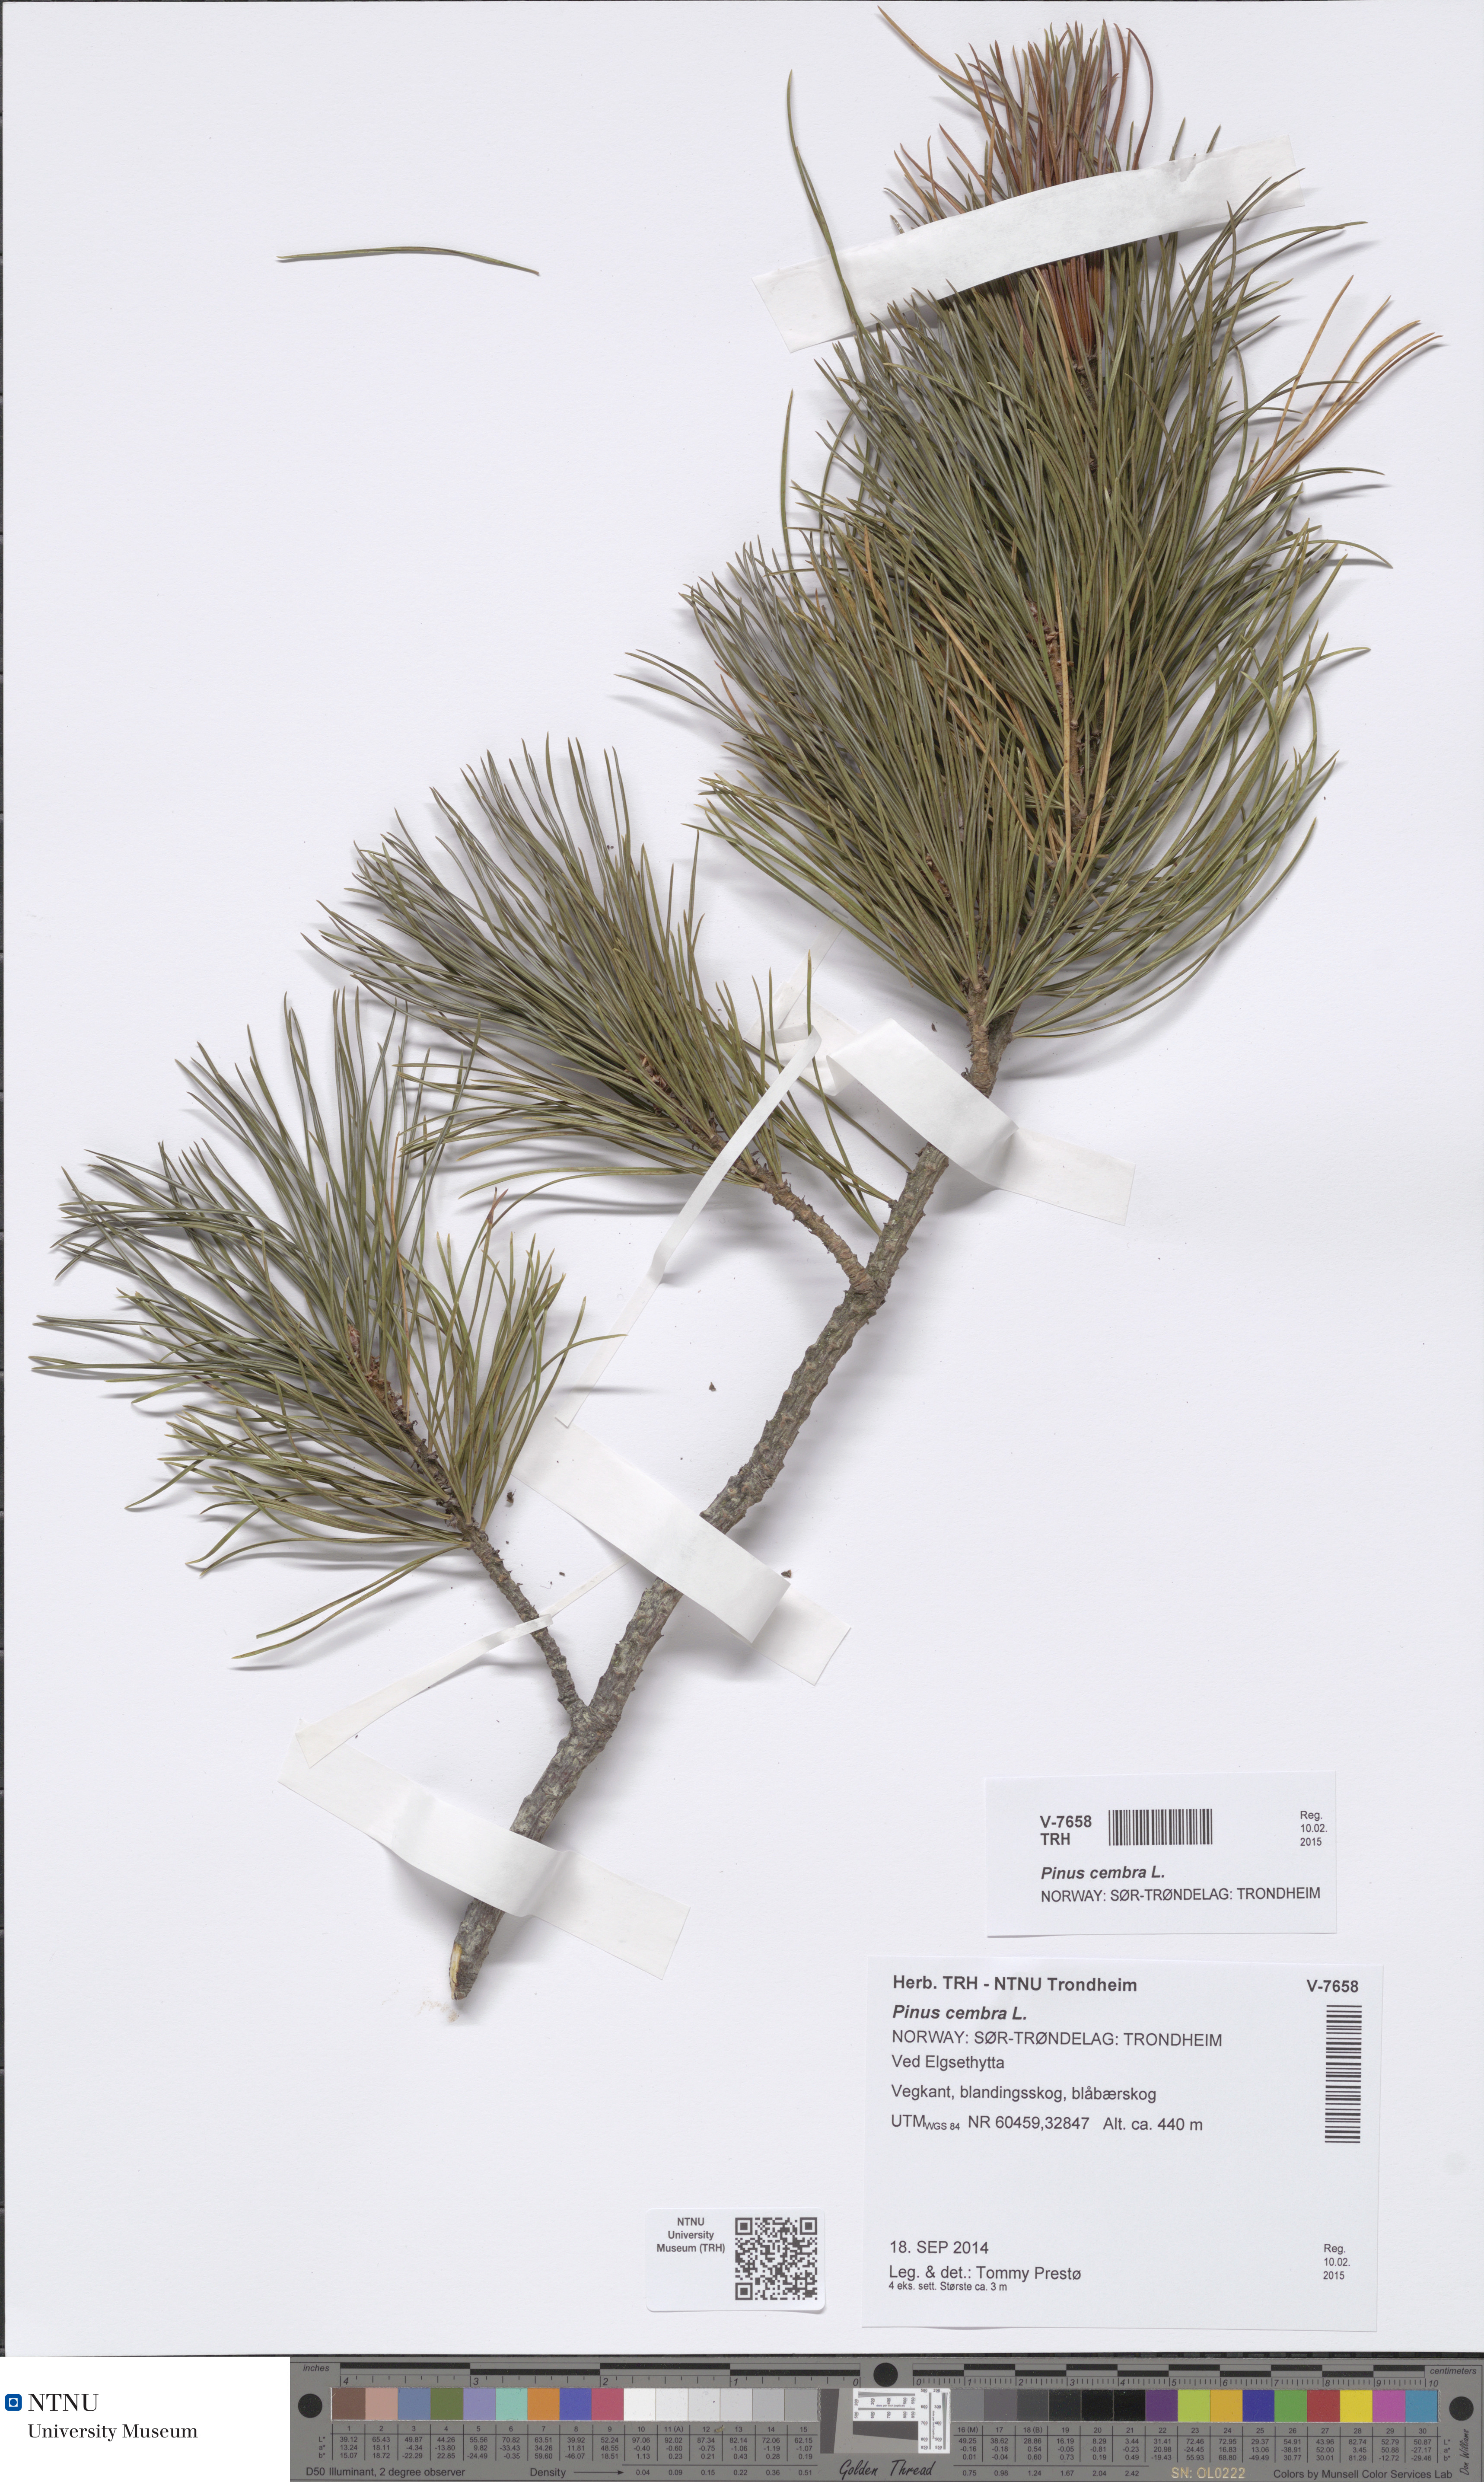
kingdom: Plantae
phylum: Tracheophyta
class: Pinopsida
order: Pinales
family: Pinaceae
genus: Pinus
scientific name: Pinus cembra
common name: Arolla pine
